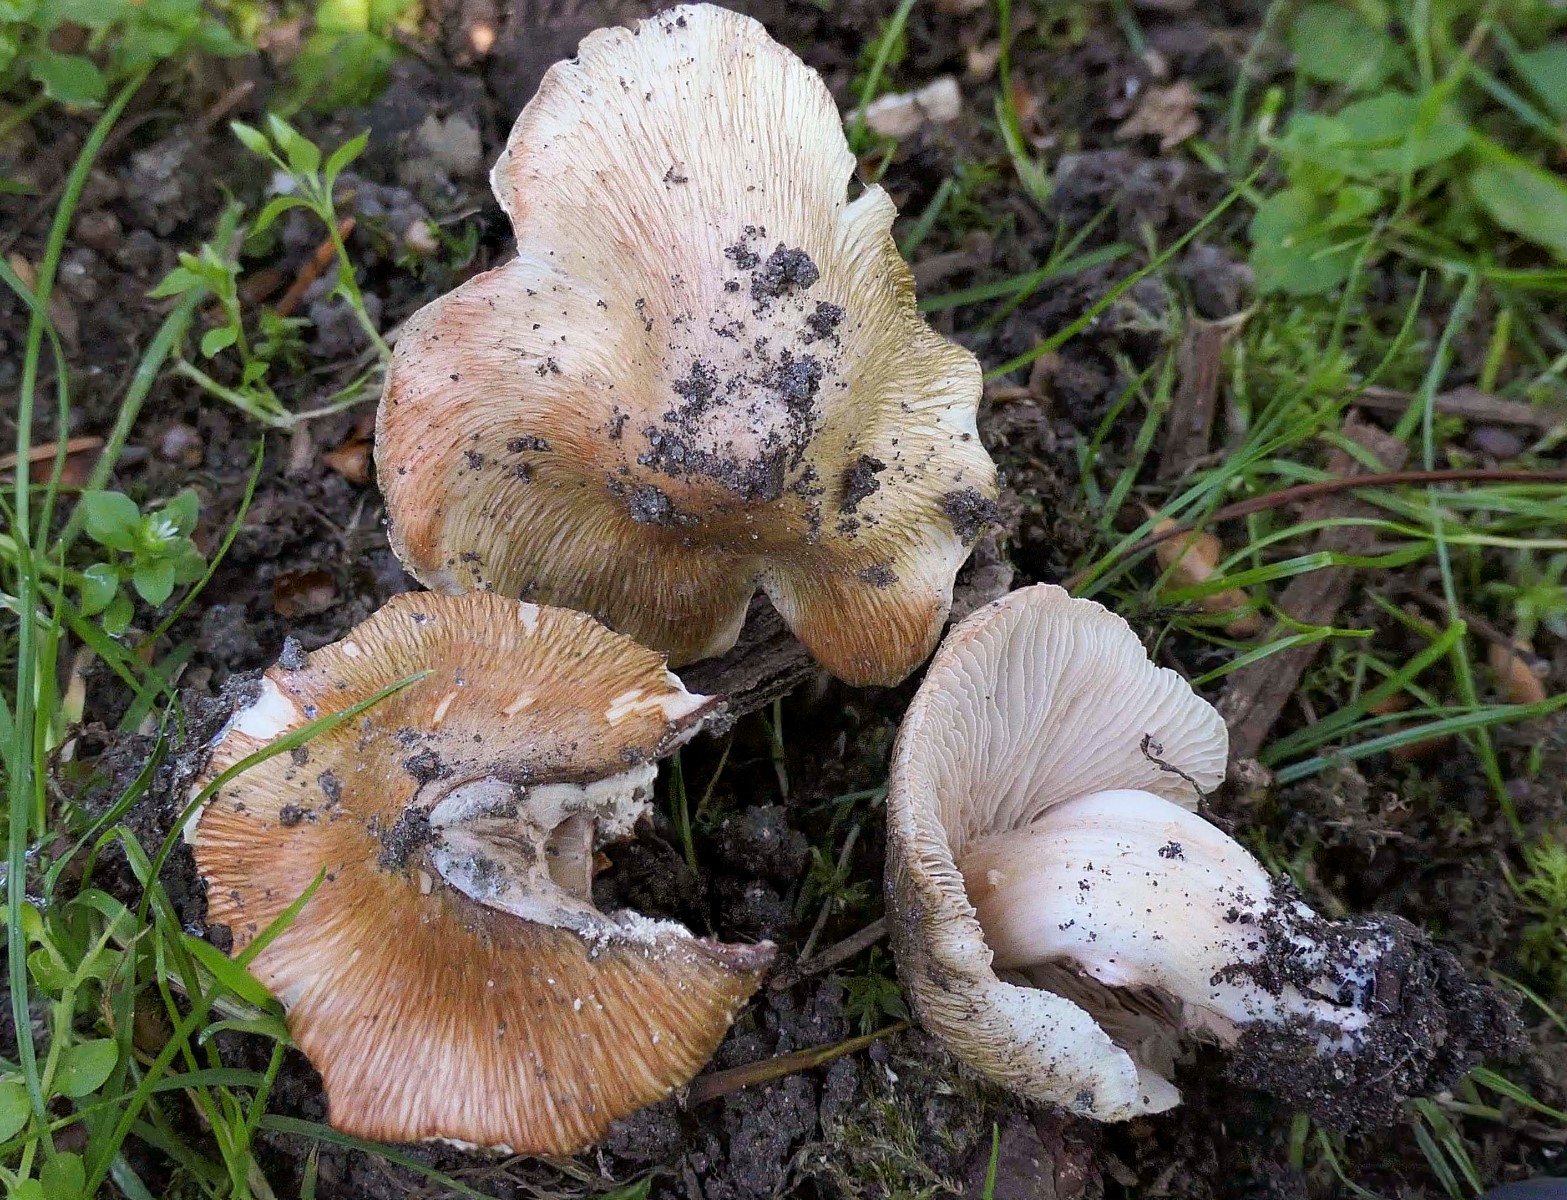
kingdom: Fungi
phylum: Basidiomycota
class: Agaricomycetes
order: Agaricales
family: Inocybaceae
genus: Inosperma
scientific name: Inosperma erubescens
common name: giftig trævlhat
